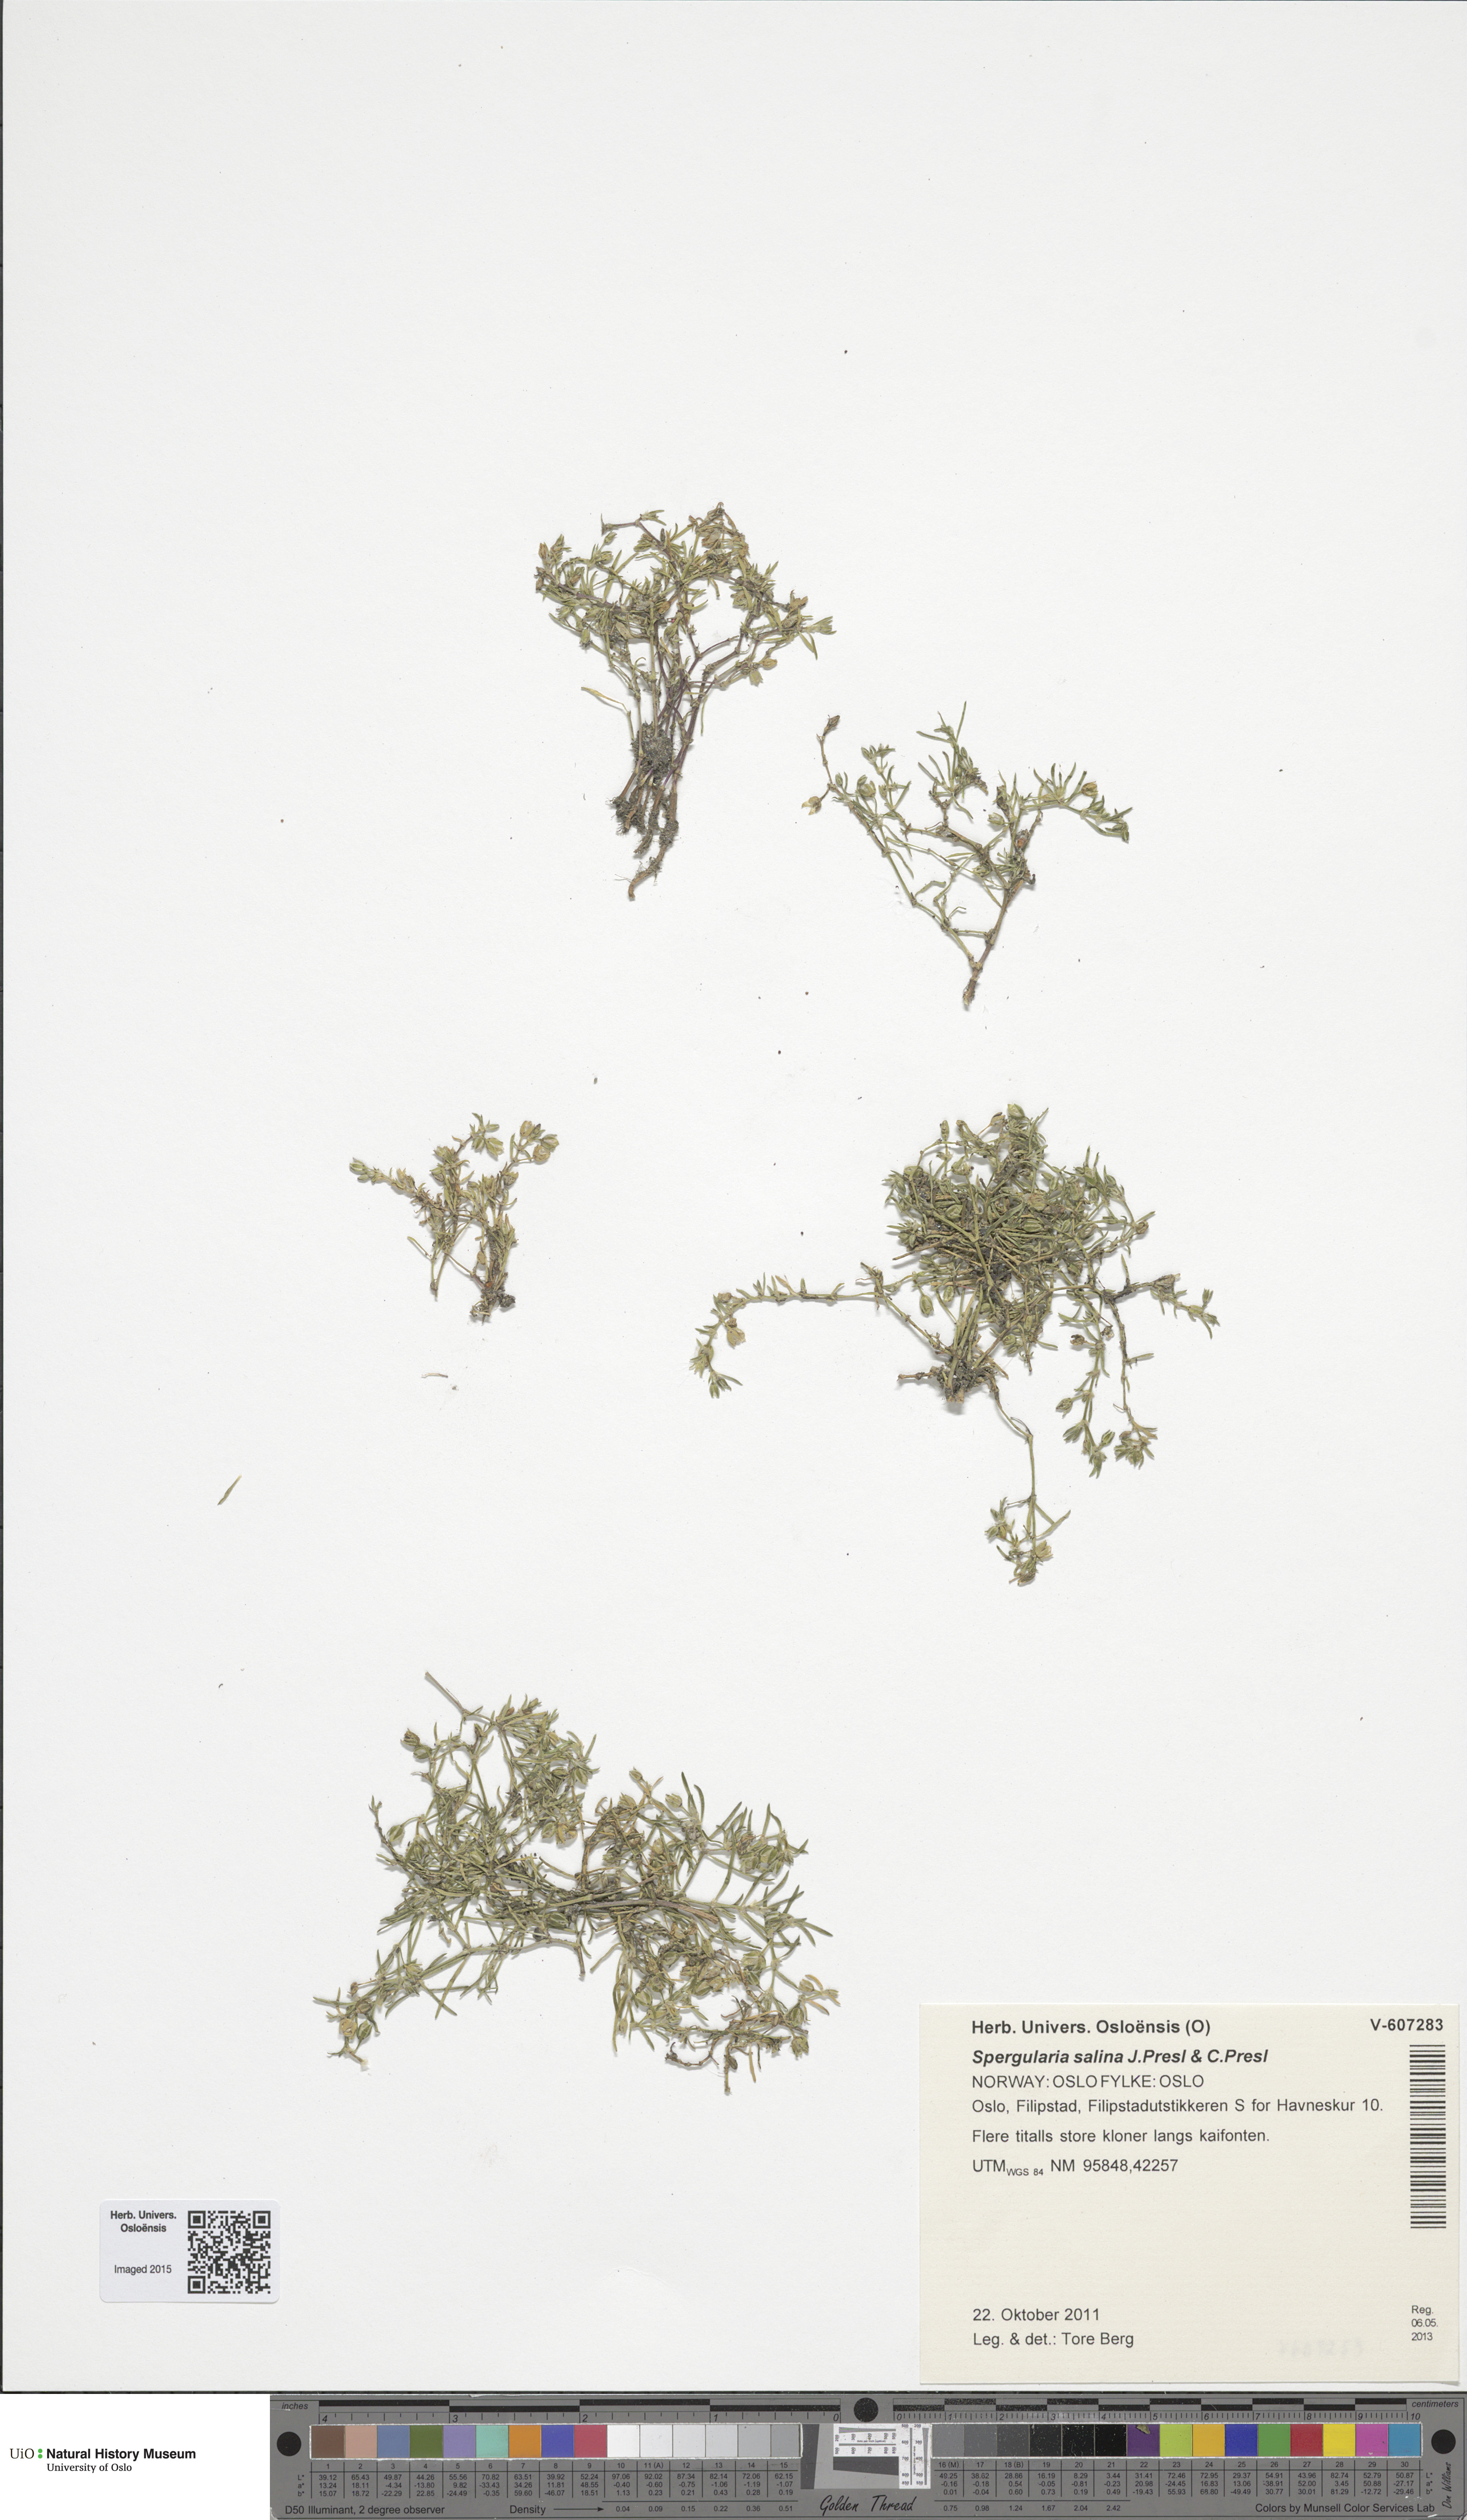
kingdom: Plantae
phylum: Tracheophyta
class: Magnoliopsida
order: Caryophyllales
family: Caryophyllaceae
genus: Spergularia
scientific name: Spergularia marina
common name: Lesser sea-spurrey
